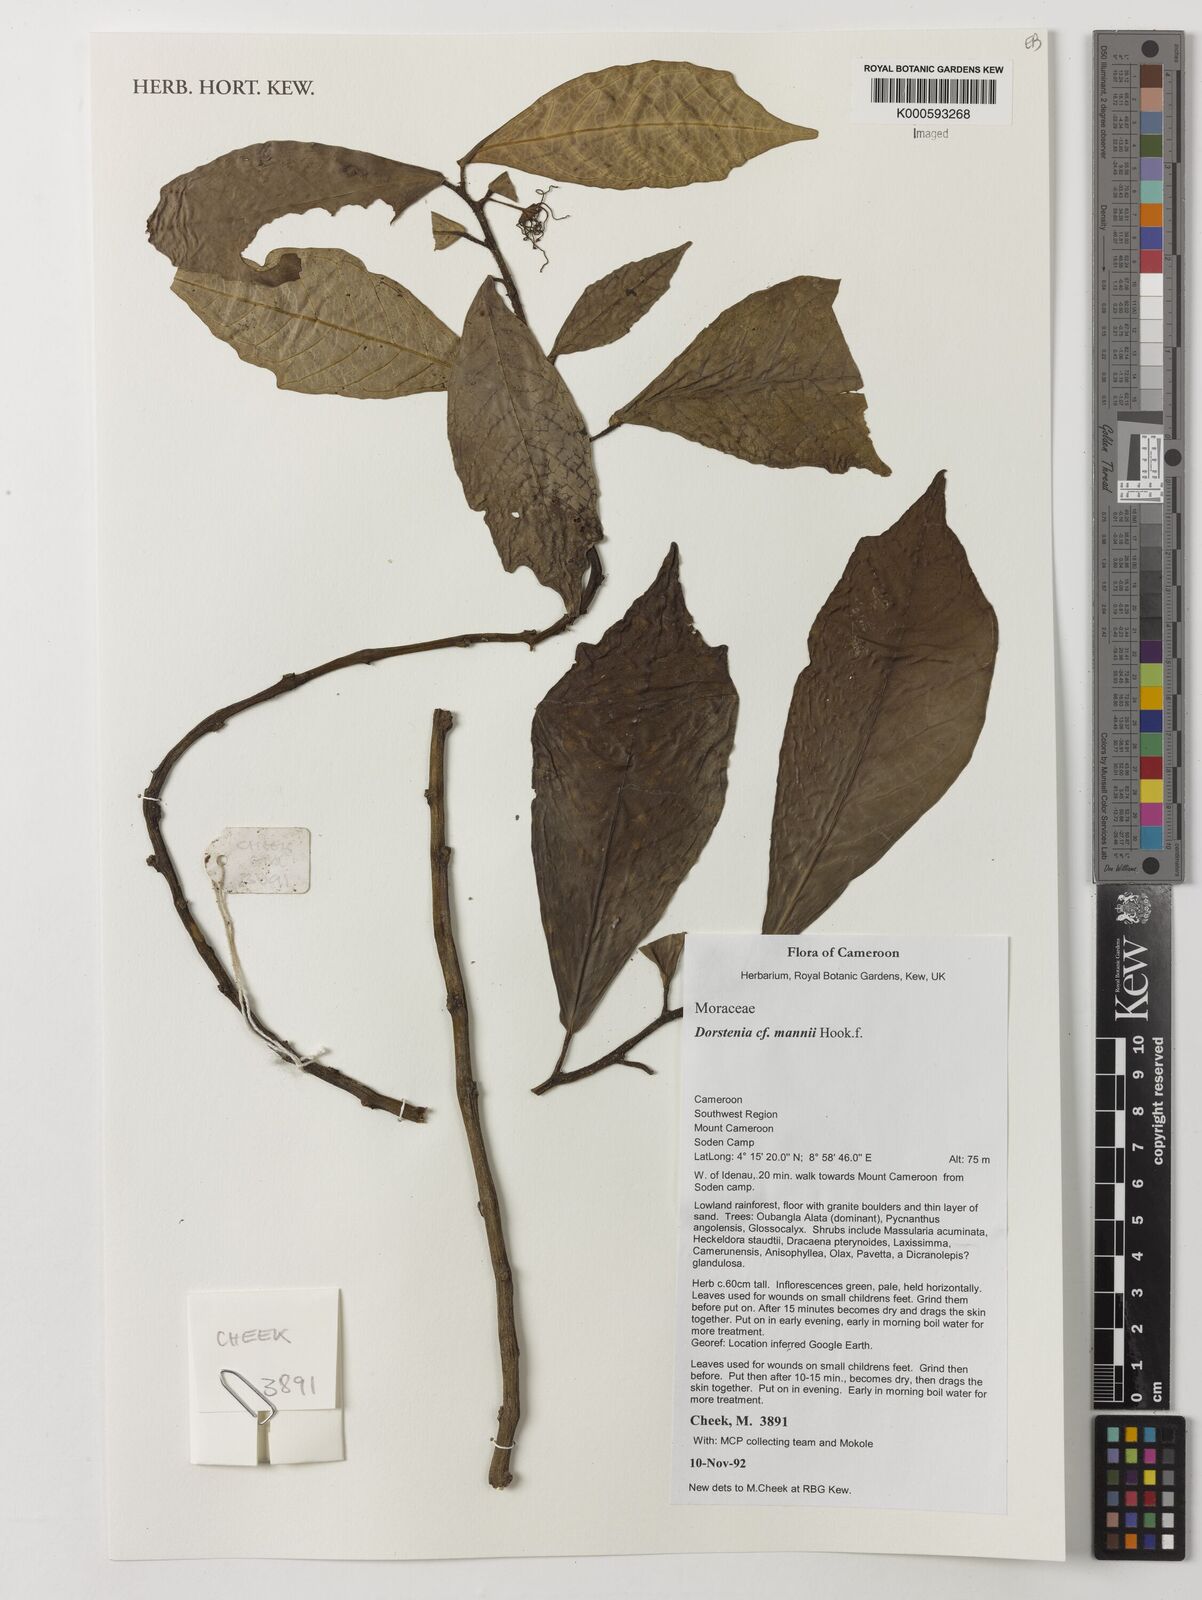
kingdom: Plantae
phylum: Tracheophyta
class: Magnoliopsida
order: Rosales
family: Moraceae
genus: Dorstenia
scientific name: Dorstenia mannii
